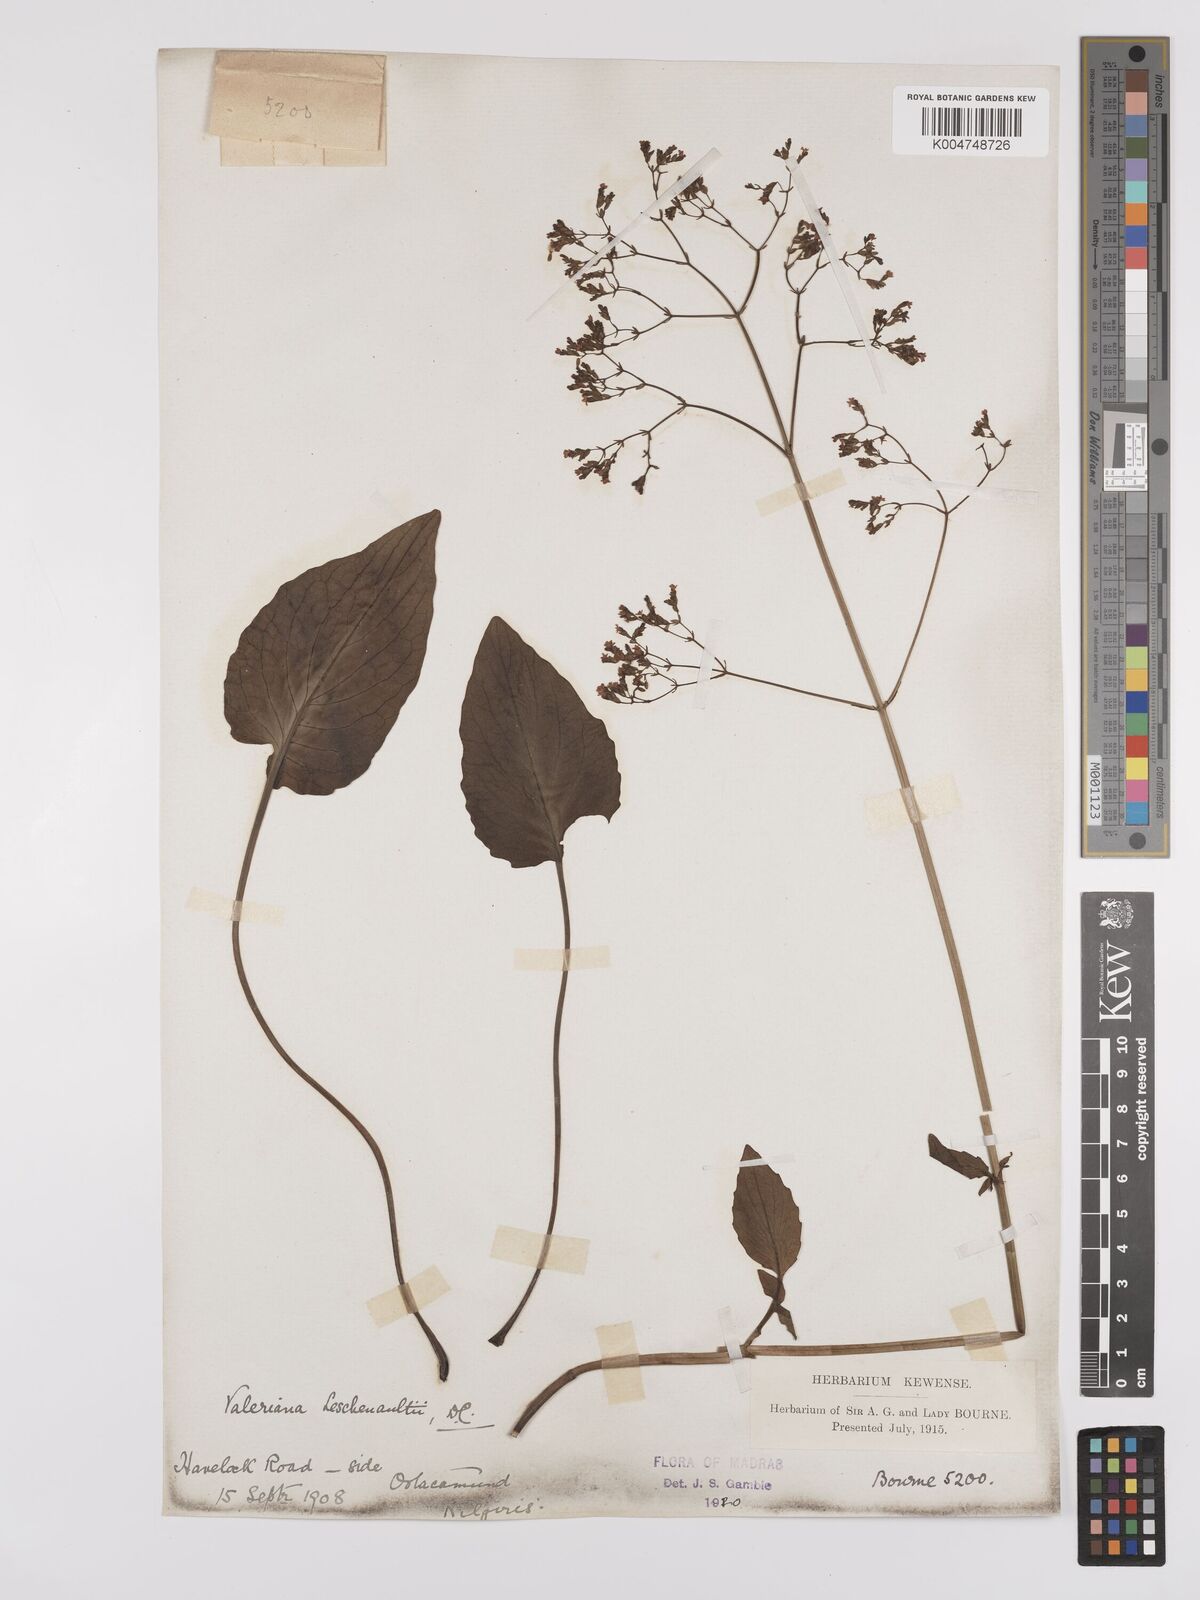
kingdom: Plantae
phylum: Tracheophyta
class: Magnoliopsida
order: Dipsacales
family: Caprifoliaceae
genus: Valeriana
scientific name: Valeriana leschenaultii
